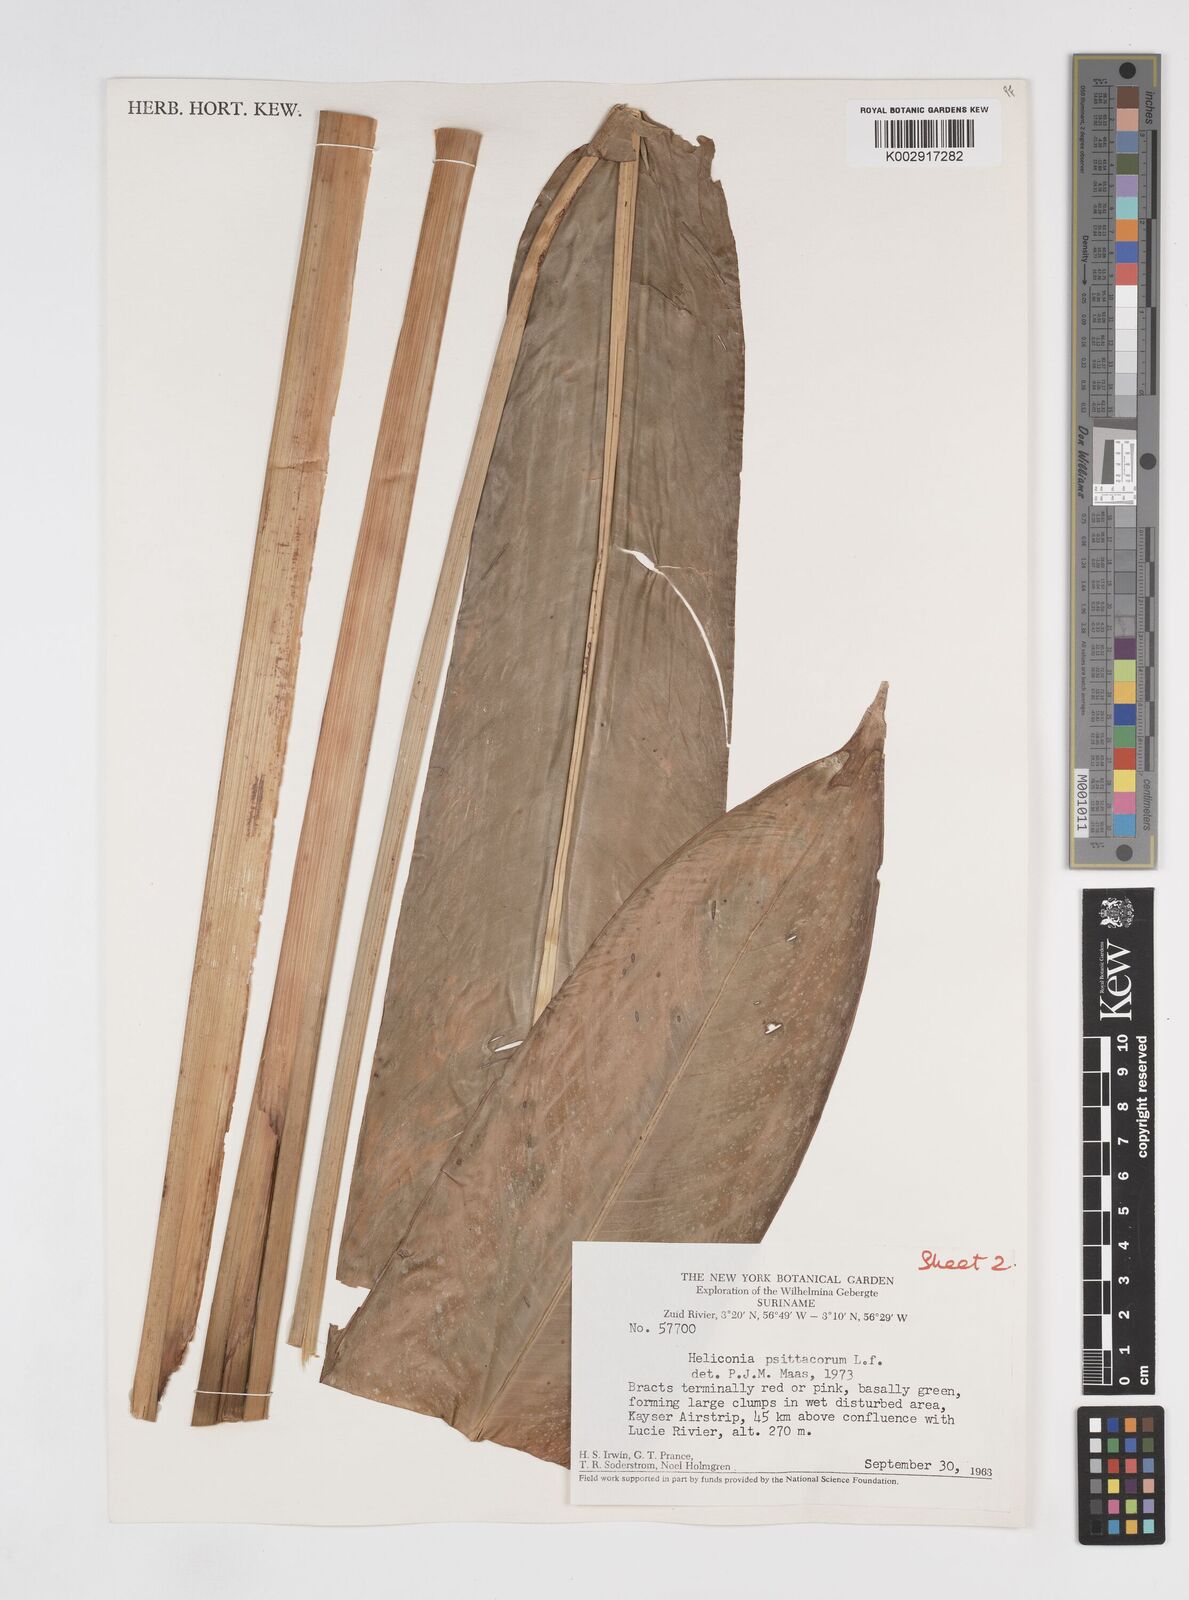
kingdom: Plantae
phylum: Tracheophyta
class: Liliopsida
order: Zingiberales
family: Heliconiaceae
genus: Heliconia
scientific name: Heliconia psittacorum
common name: Parrot's-flower
